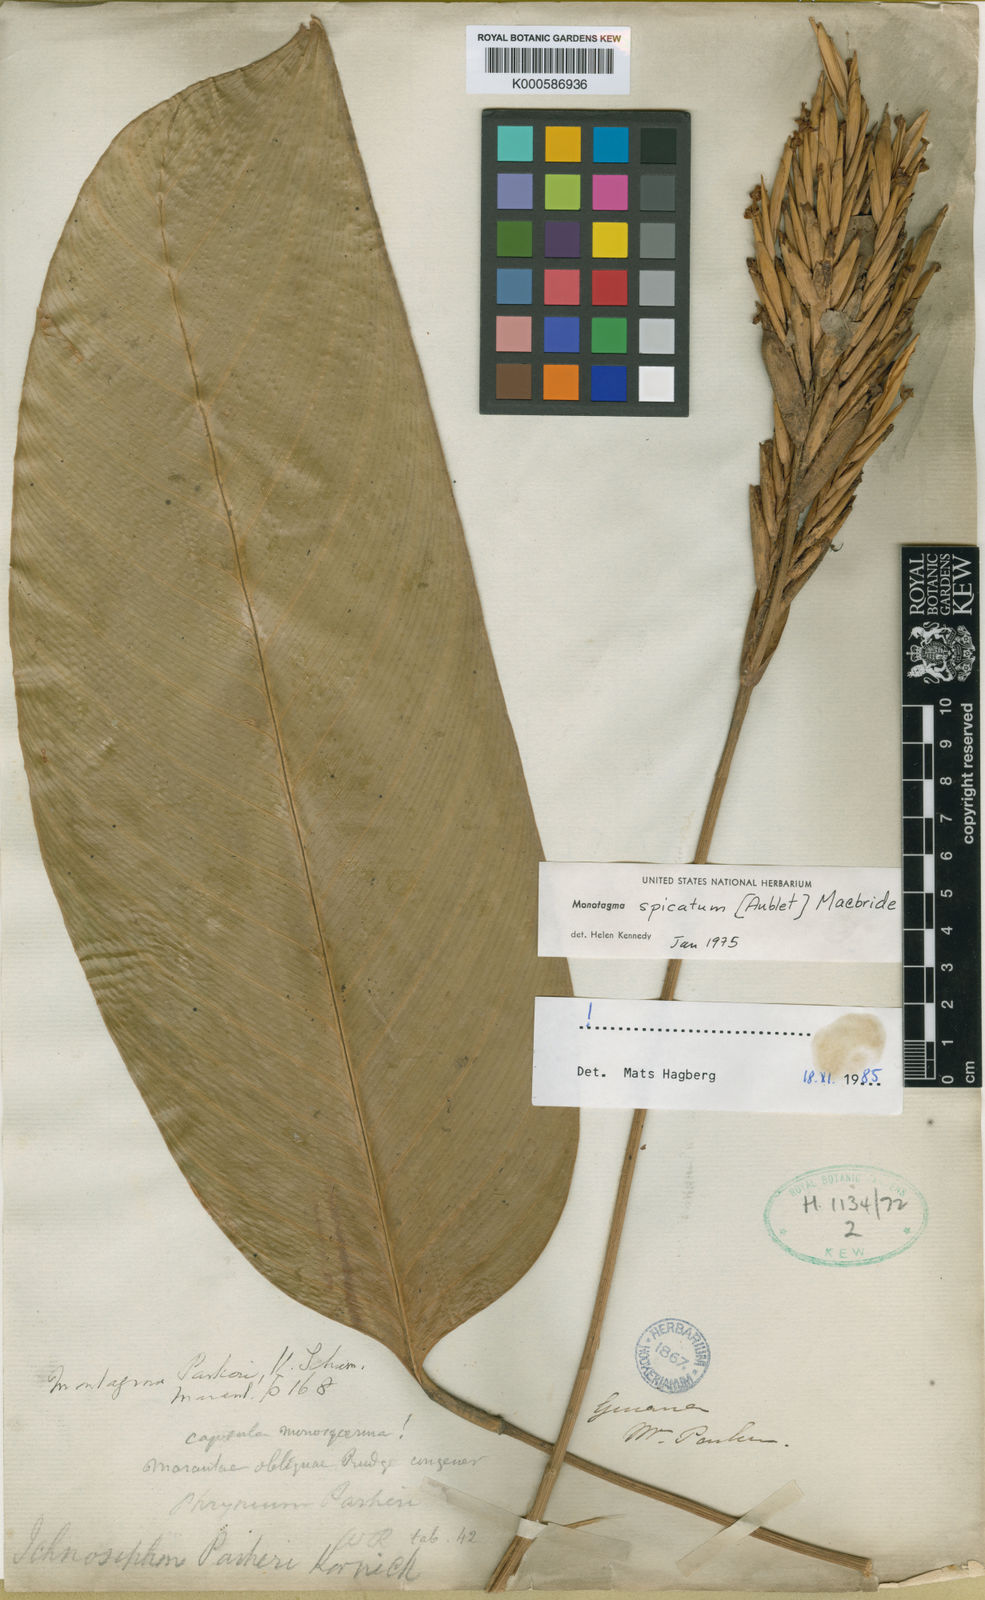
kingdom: Plantae
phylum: Tracheophyta
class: Liliopsida
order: Zingiberales
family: Marantaceae
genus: Monotagma
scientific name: Monotagma spicatum
